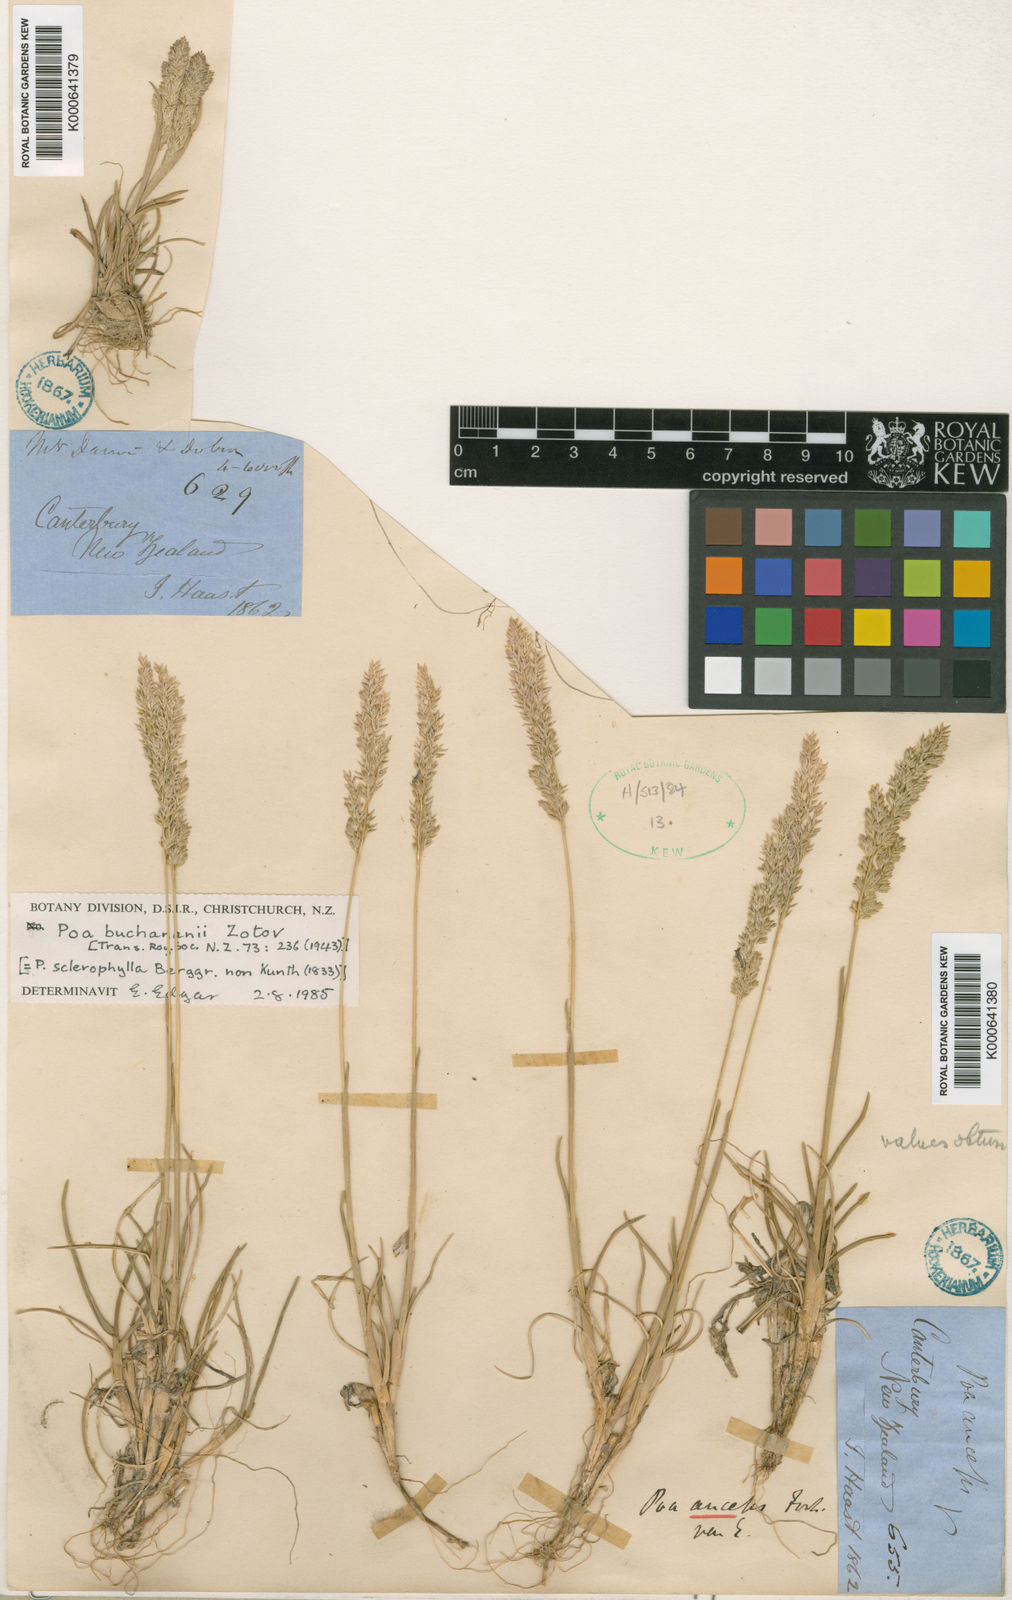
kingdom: Plantae
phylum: Tracheophyta
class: Liliopsida
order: Poales
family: Poaceae
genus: Poa
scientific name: Poa buchananii
